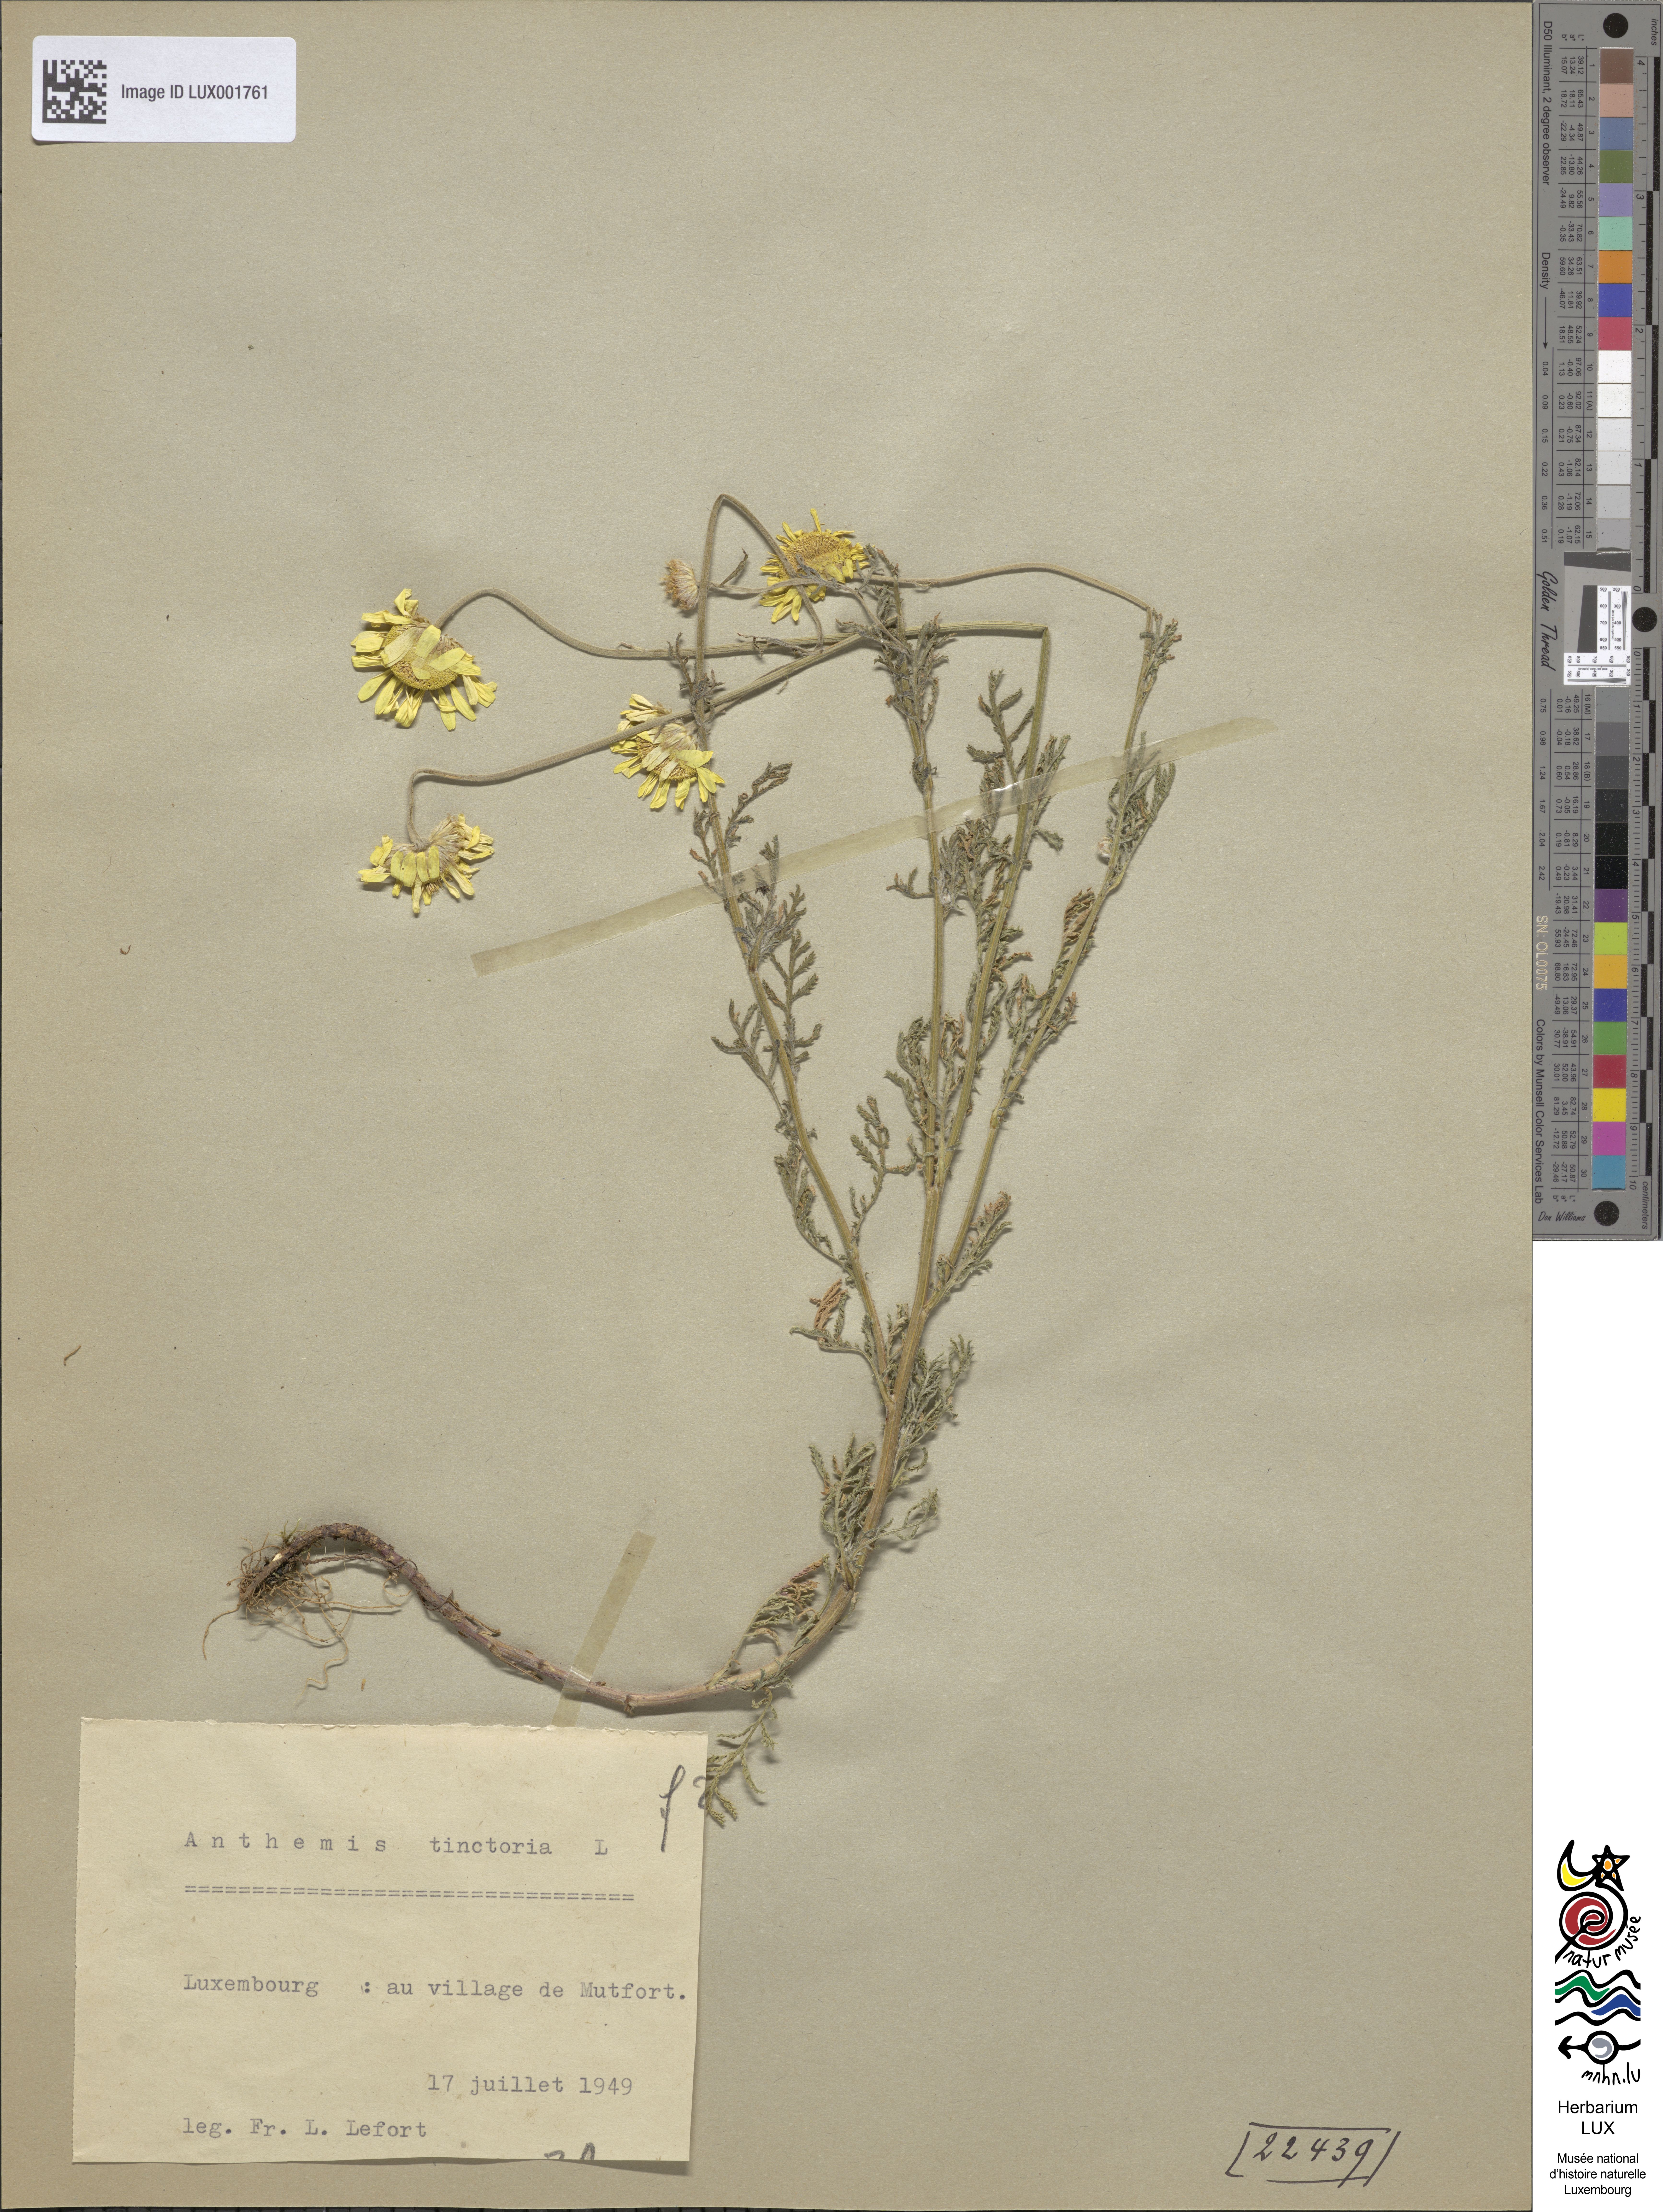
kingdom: Plantae
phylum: Tracheophyta
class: Magnoliopsida
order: Asterales
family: Asteraceae
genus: Cota
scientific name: Cota tinctoria
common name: Golden chamomile
